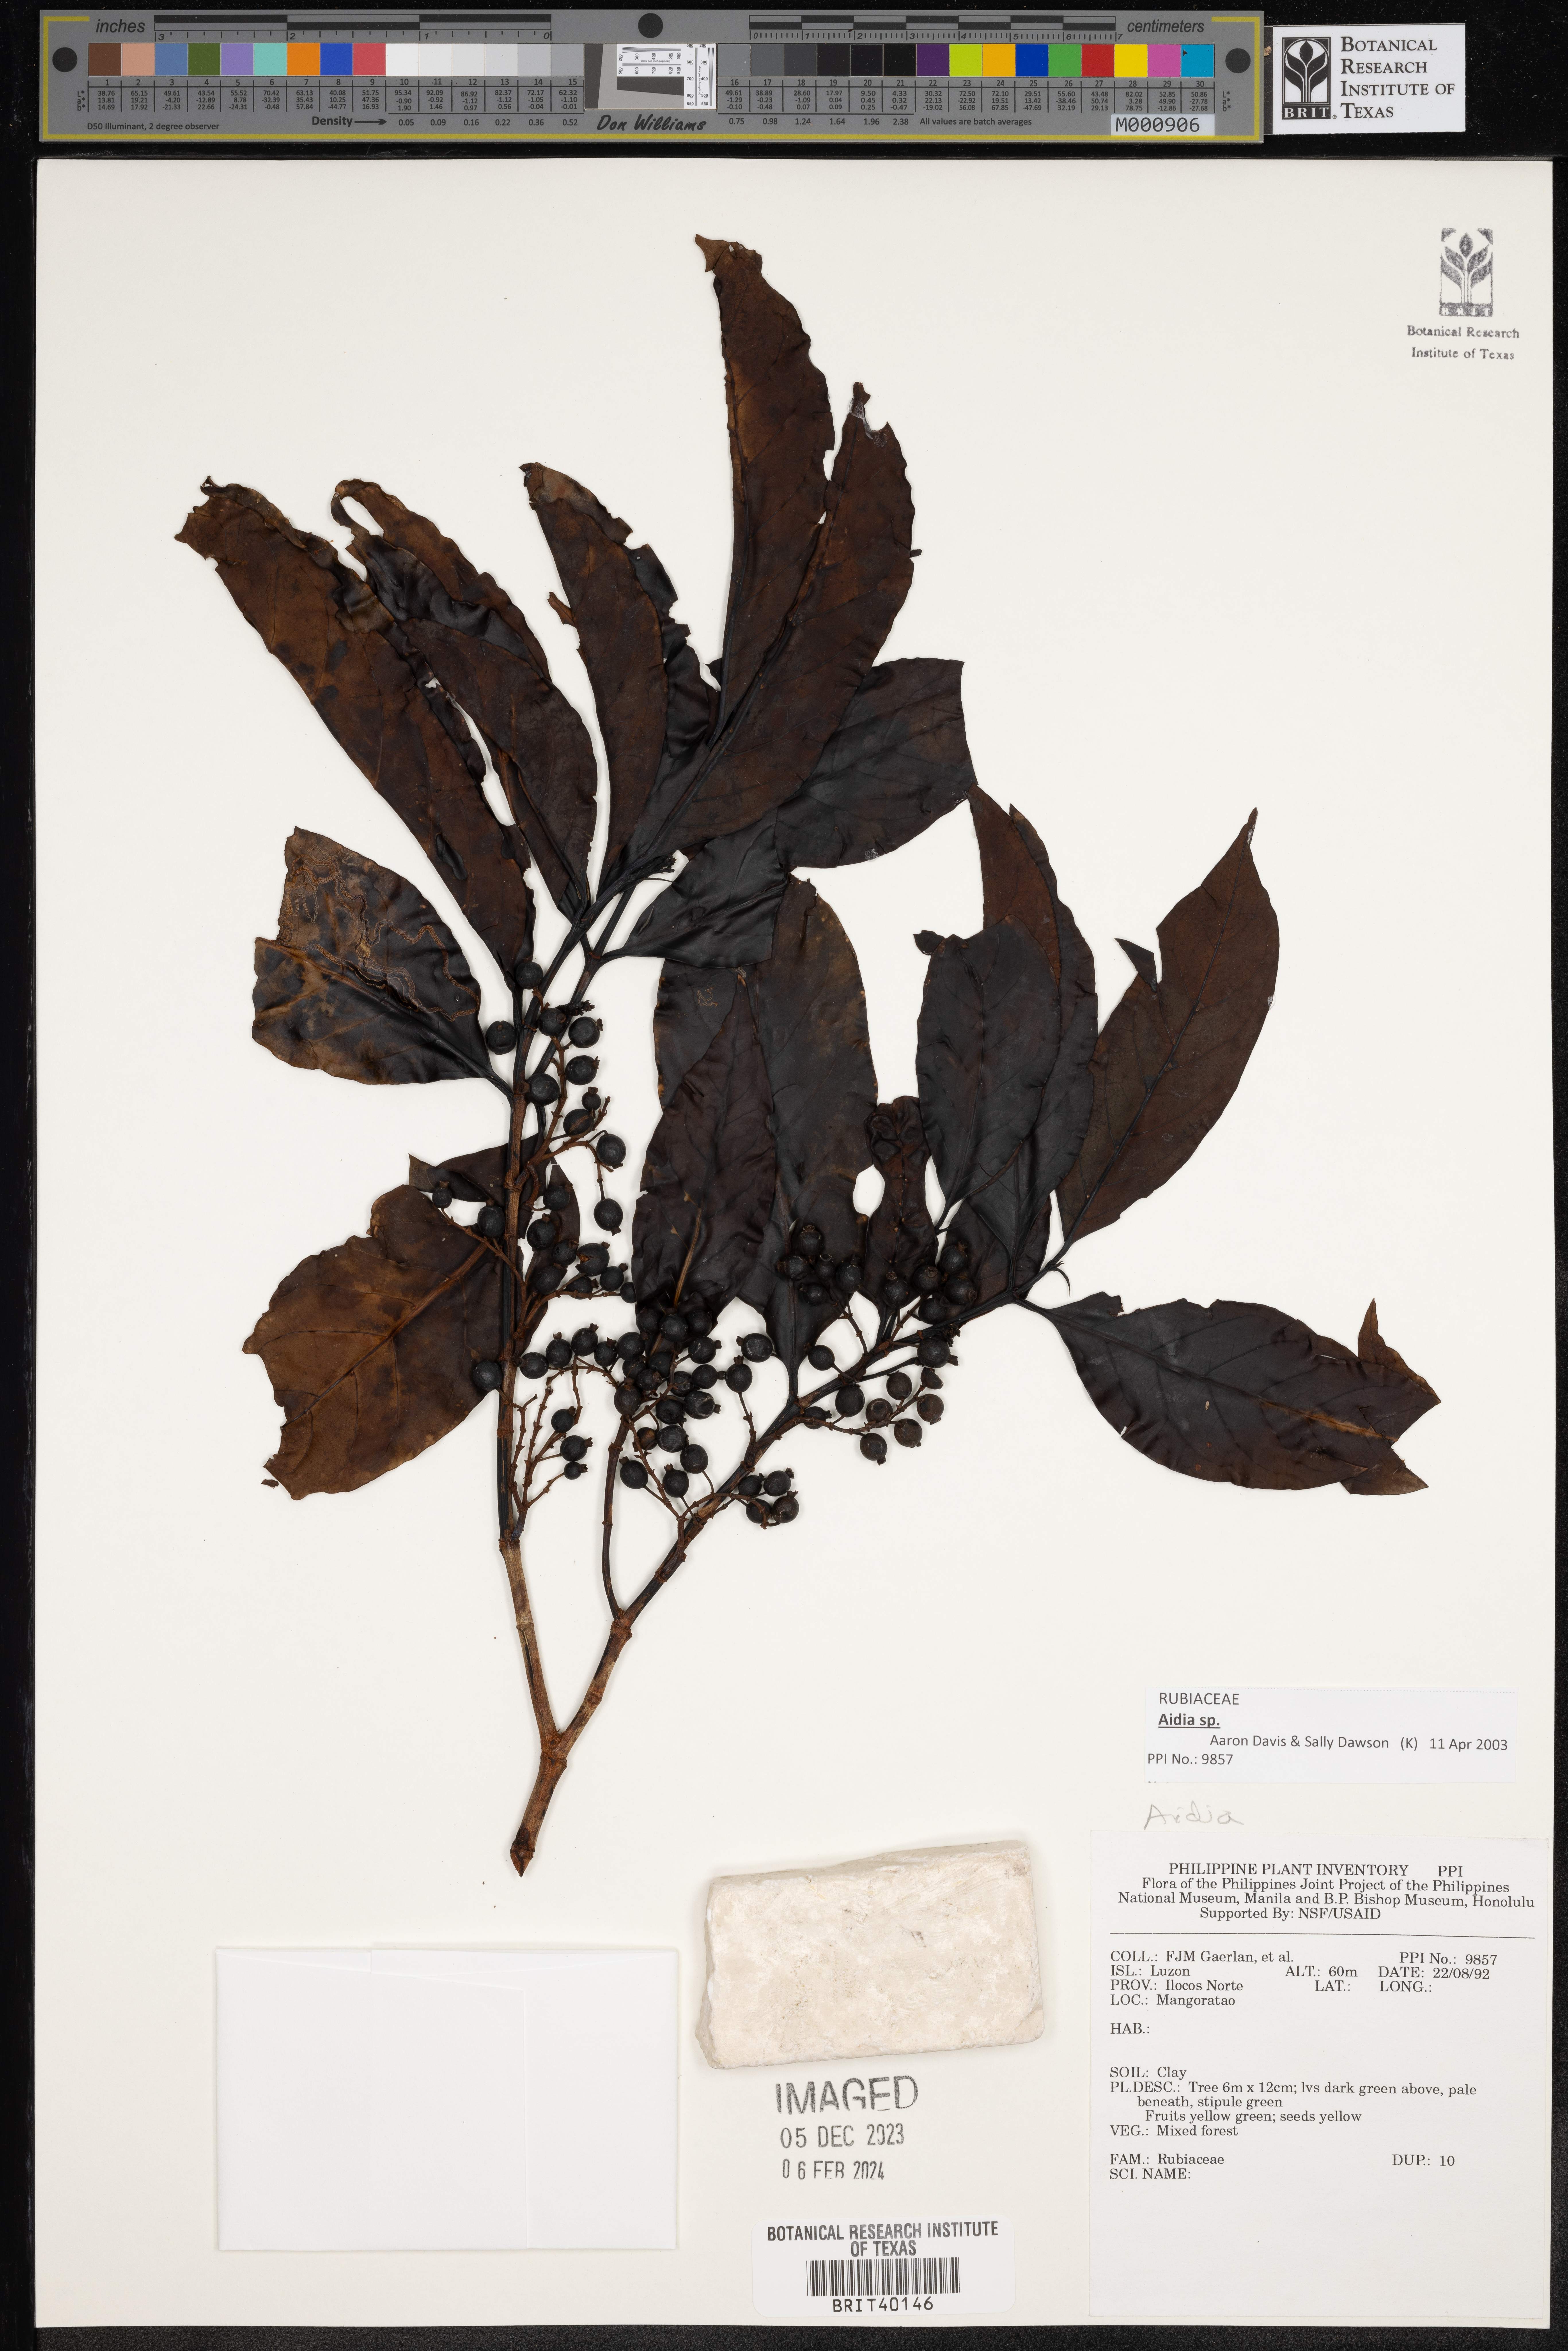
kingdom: Plantae
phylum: Tracheophyta
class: Magnoliopsida
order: Gentianales
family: Rubiaceae
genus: Aidia
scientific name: Aidia
